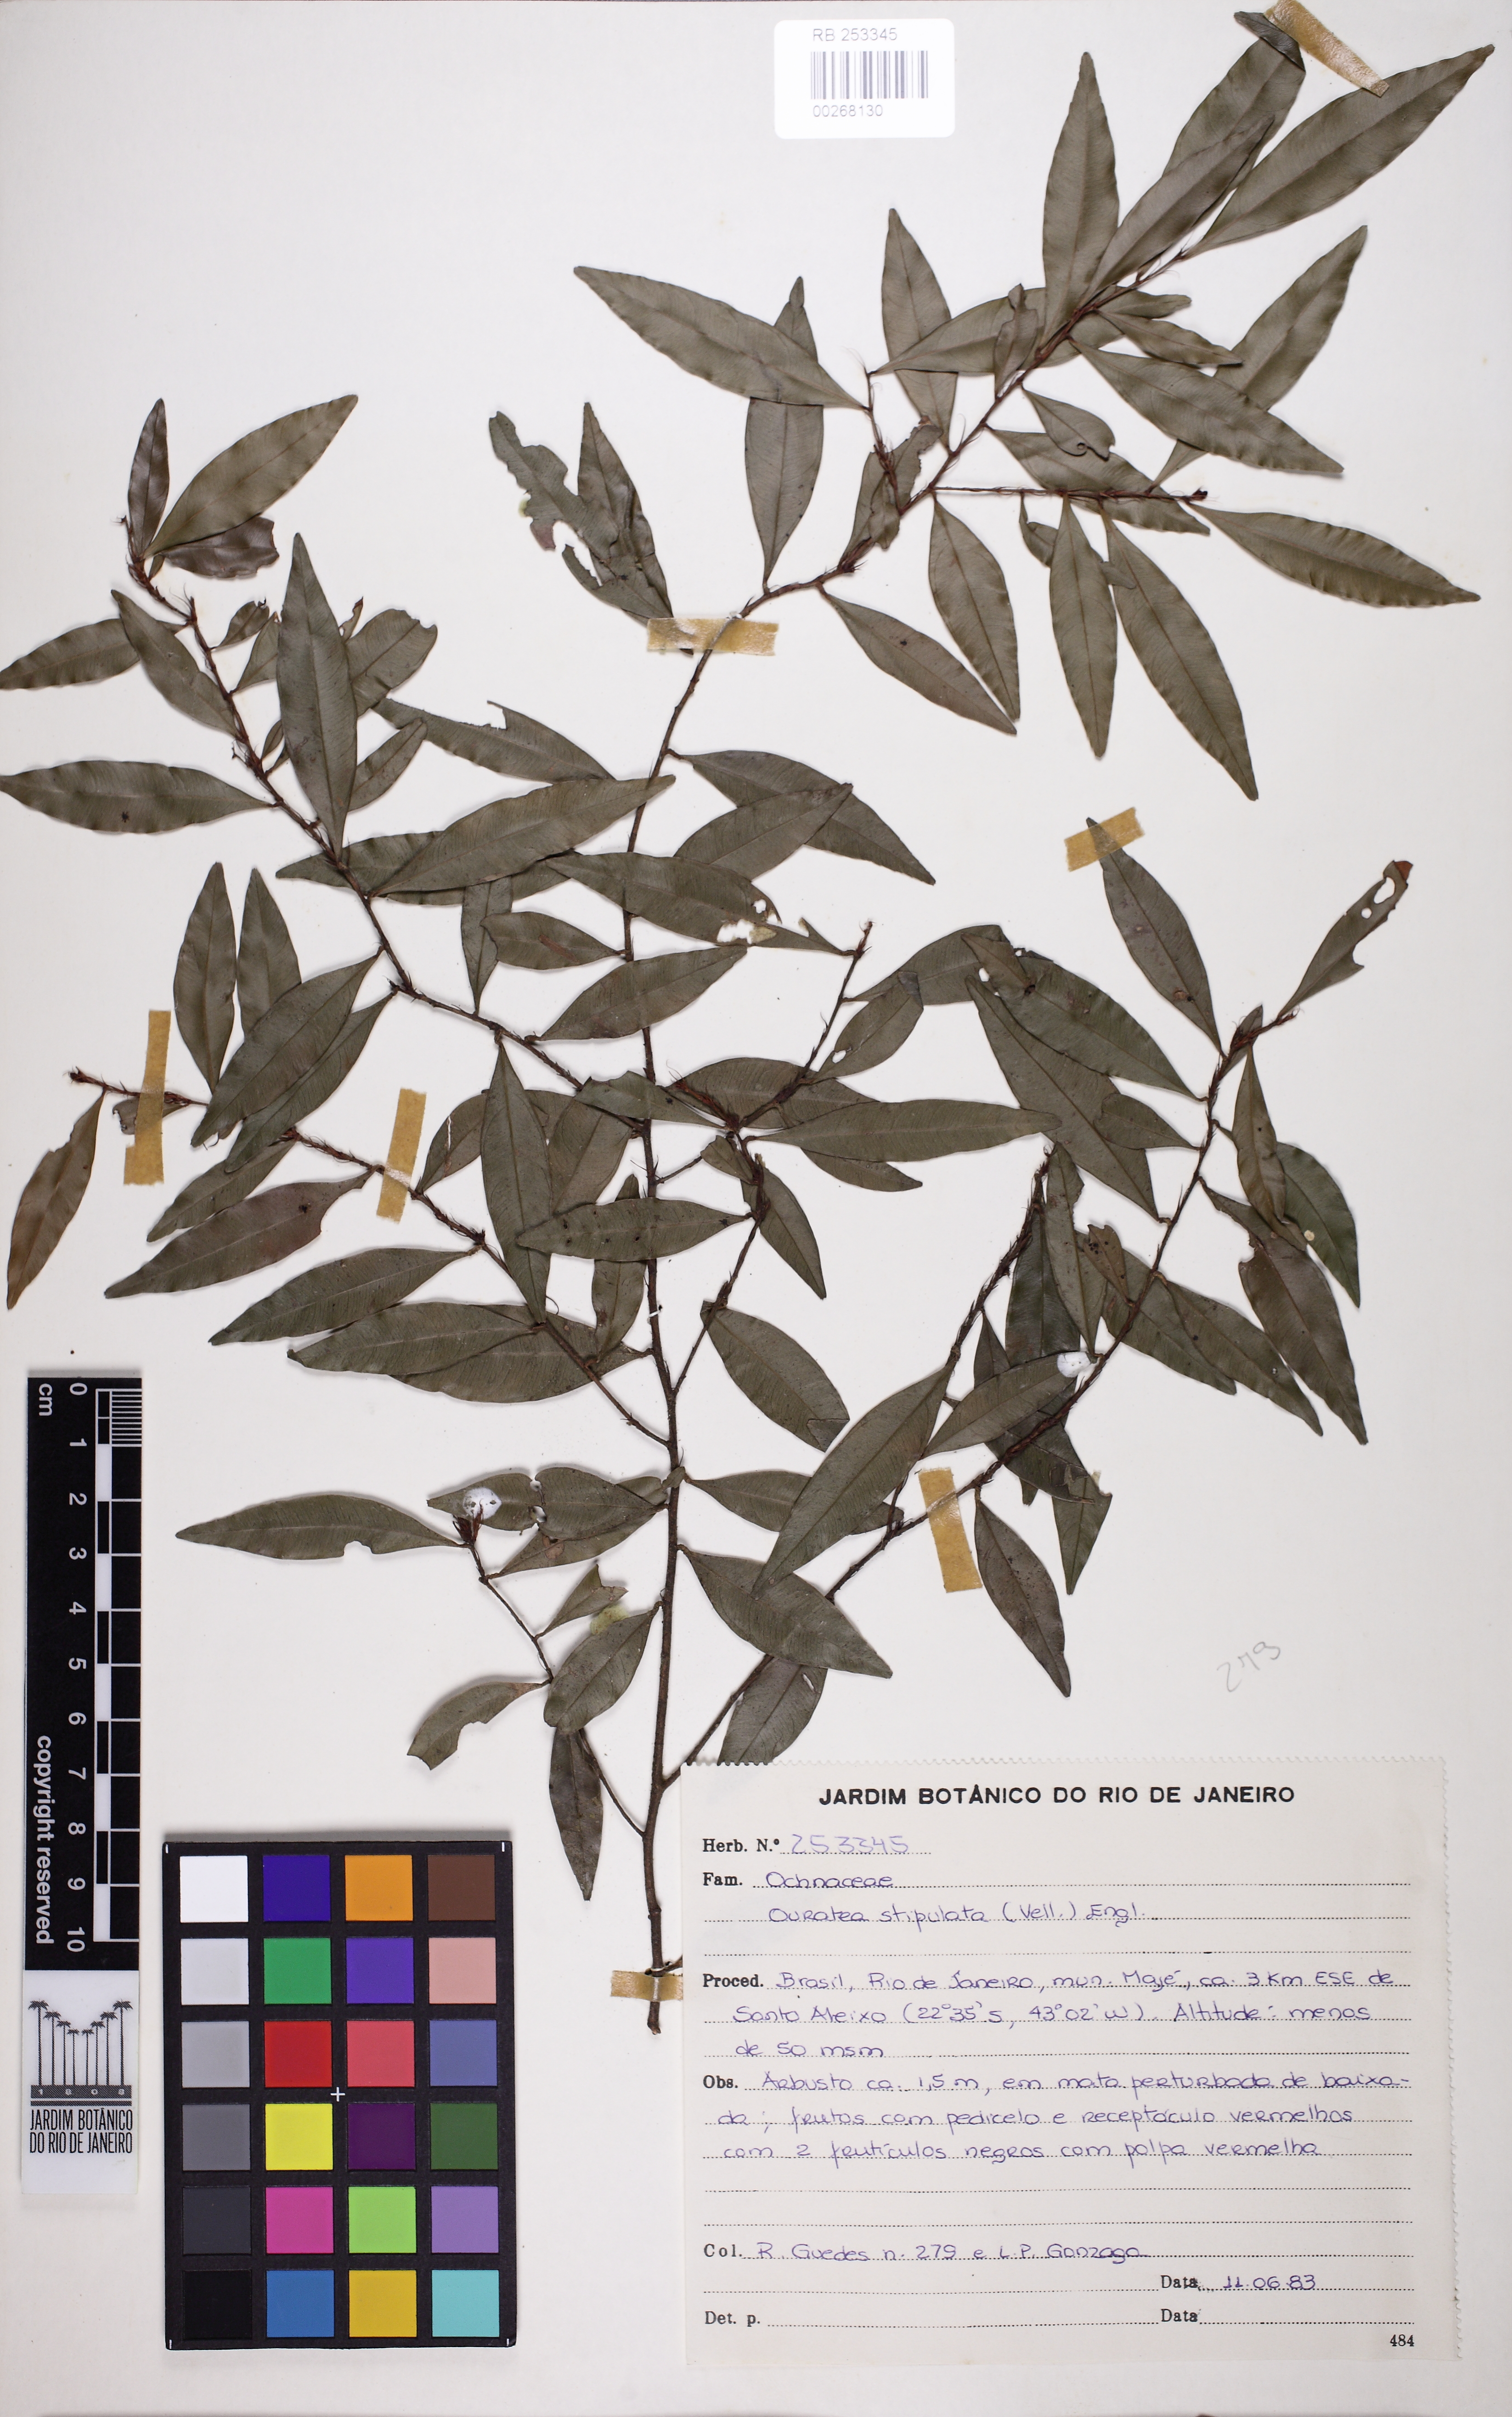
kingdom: Plantae
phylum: Tracheophyta
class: Magnoliopsida
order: Malpighiales
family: Ochnaceae
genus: Ouratea
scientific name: Ouratea stipulata
